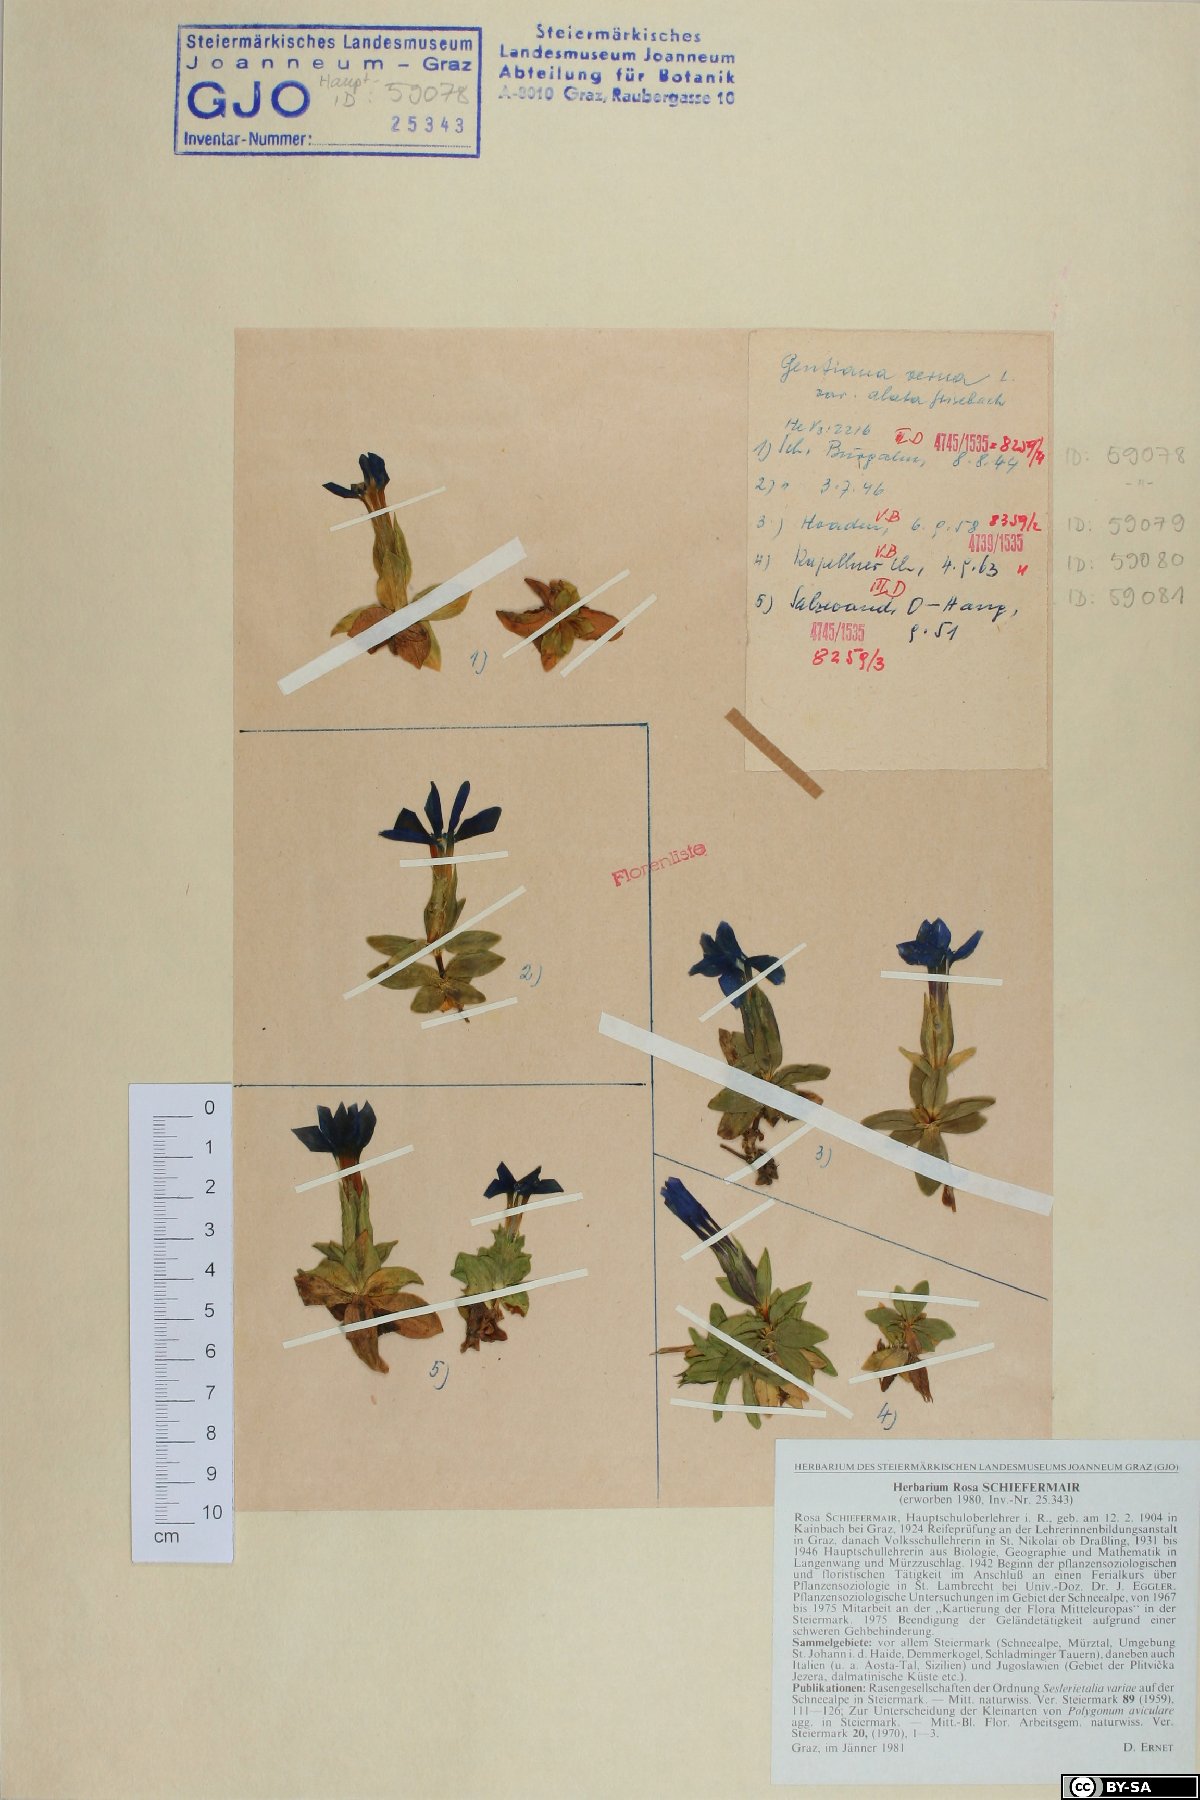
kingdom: Plantae
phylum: Tracheophyta
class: Magnoliopsida
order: Gentianales
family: Gentianaceae
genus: Gentiana
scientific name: Gentiana verna
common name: Spring gentian
